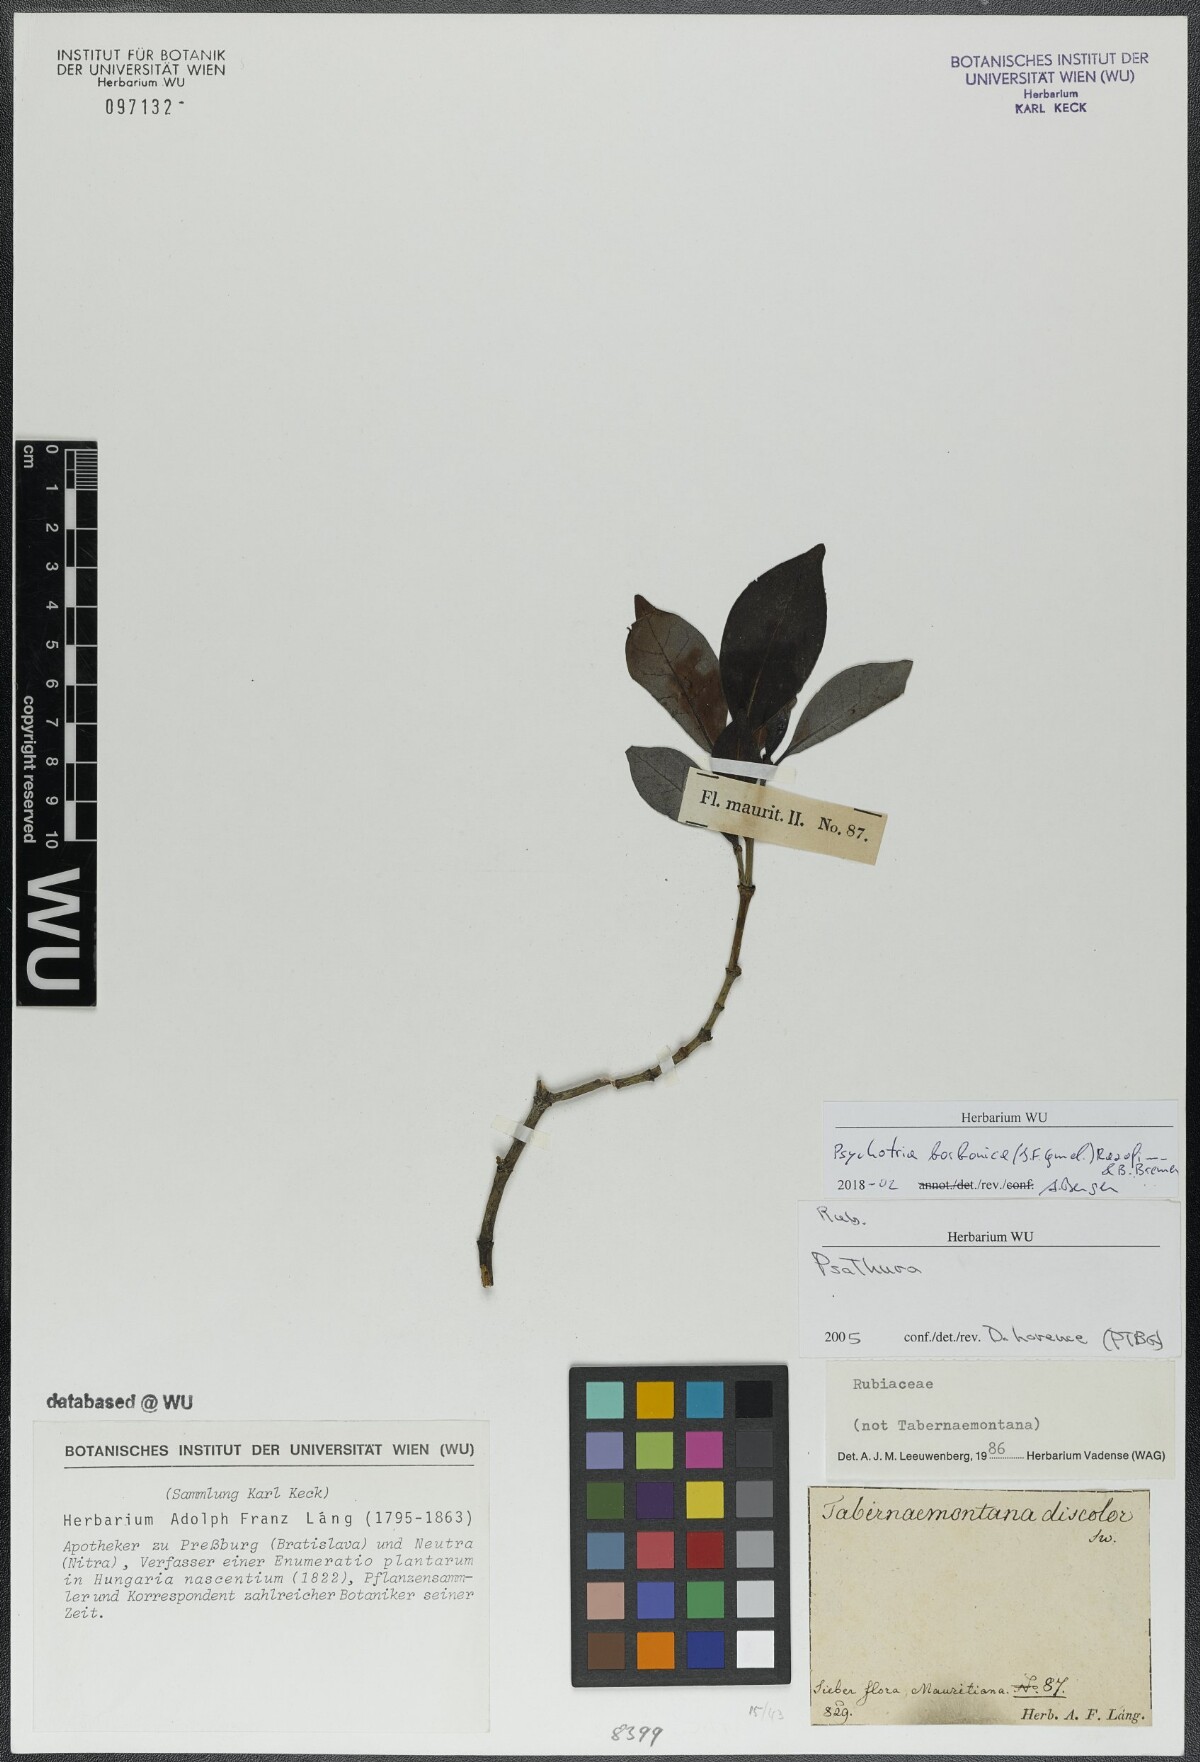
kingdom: Plantae
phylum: Tracheophyta
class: Magnoliopsida
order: Gentianales
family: Rubiaceae
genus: Psychotria
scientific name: Psychotria borbonica
